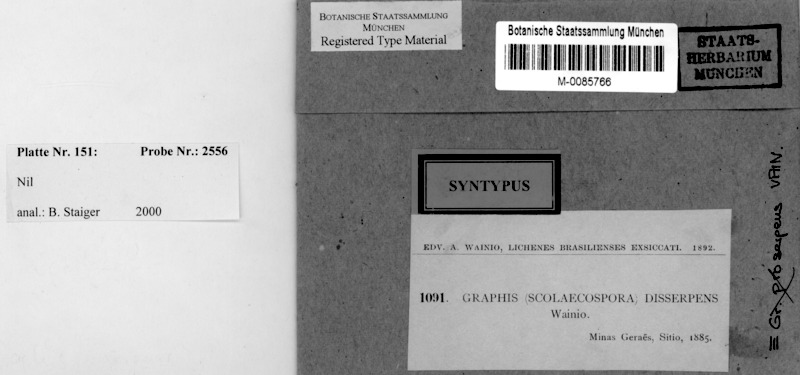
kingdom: Fungi
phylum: Ascomycota
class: Lecanoromycetes
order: Ostropales
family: Graphidaceae
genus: Graphis
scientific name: Graphis proserpens
